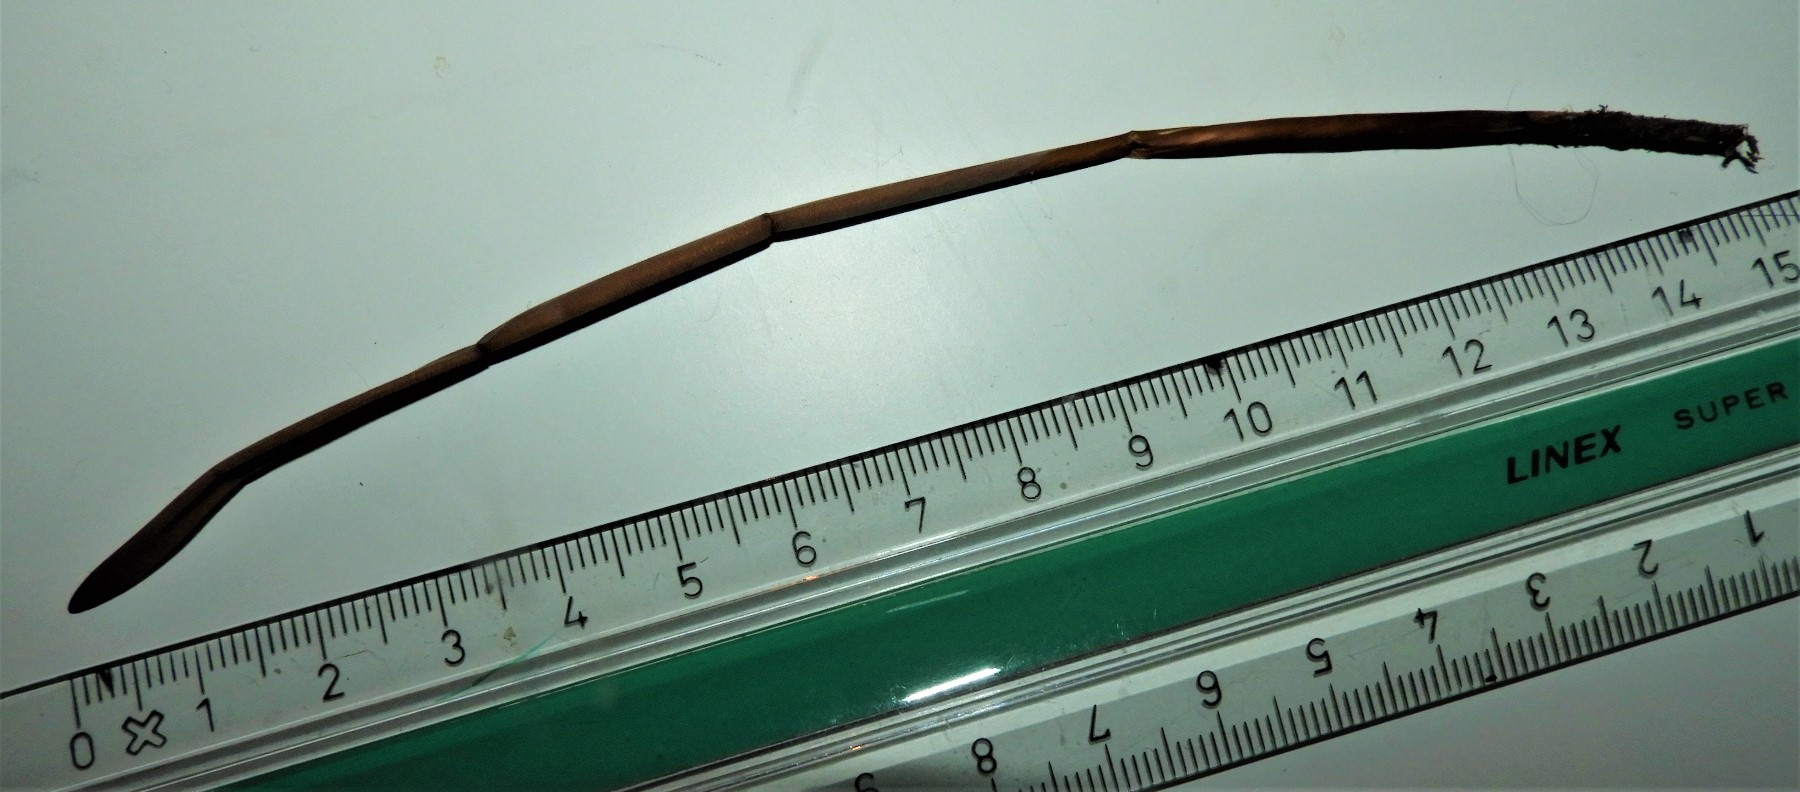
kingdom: Fungi
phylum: Basidiomycota
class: Agaricomycetes
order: Agaricales
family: Typhulaceae
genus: Typhula
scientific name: Typhula fistulosa
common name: pibet rørkølle
